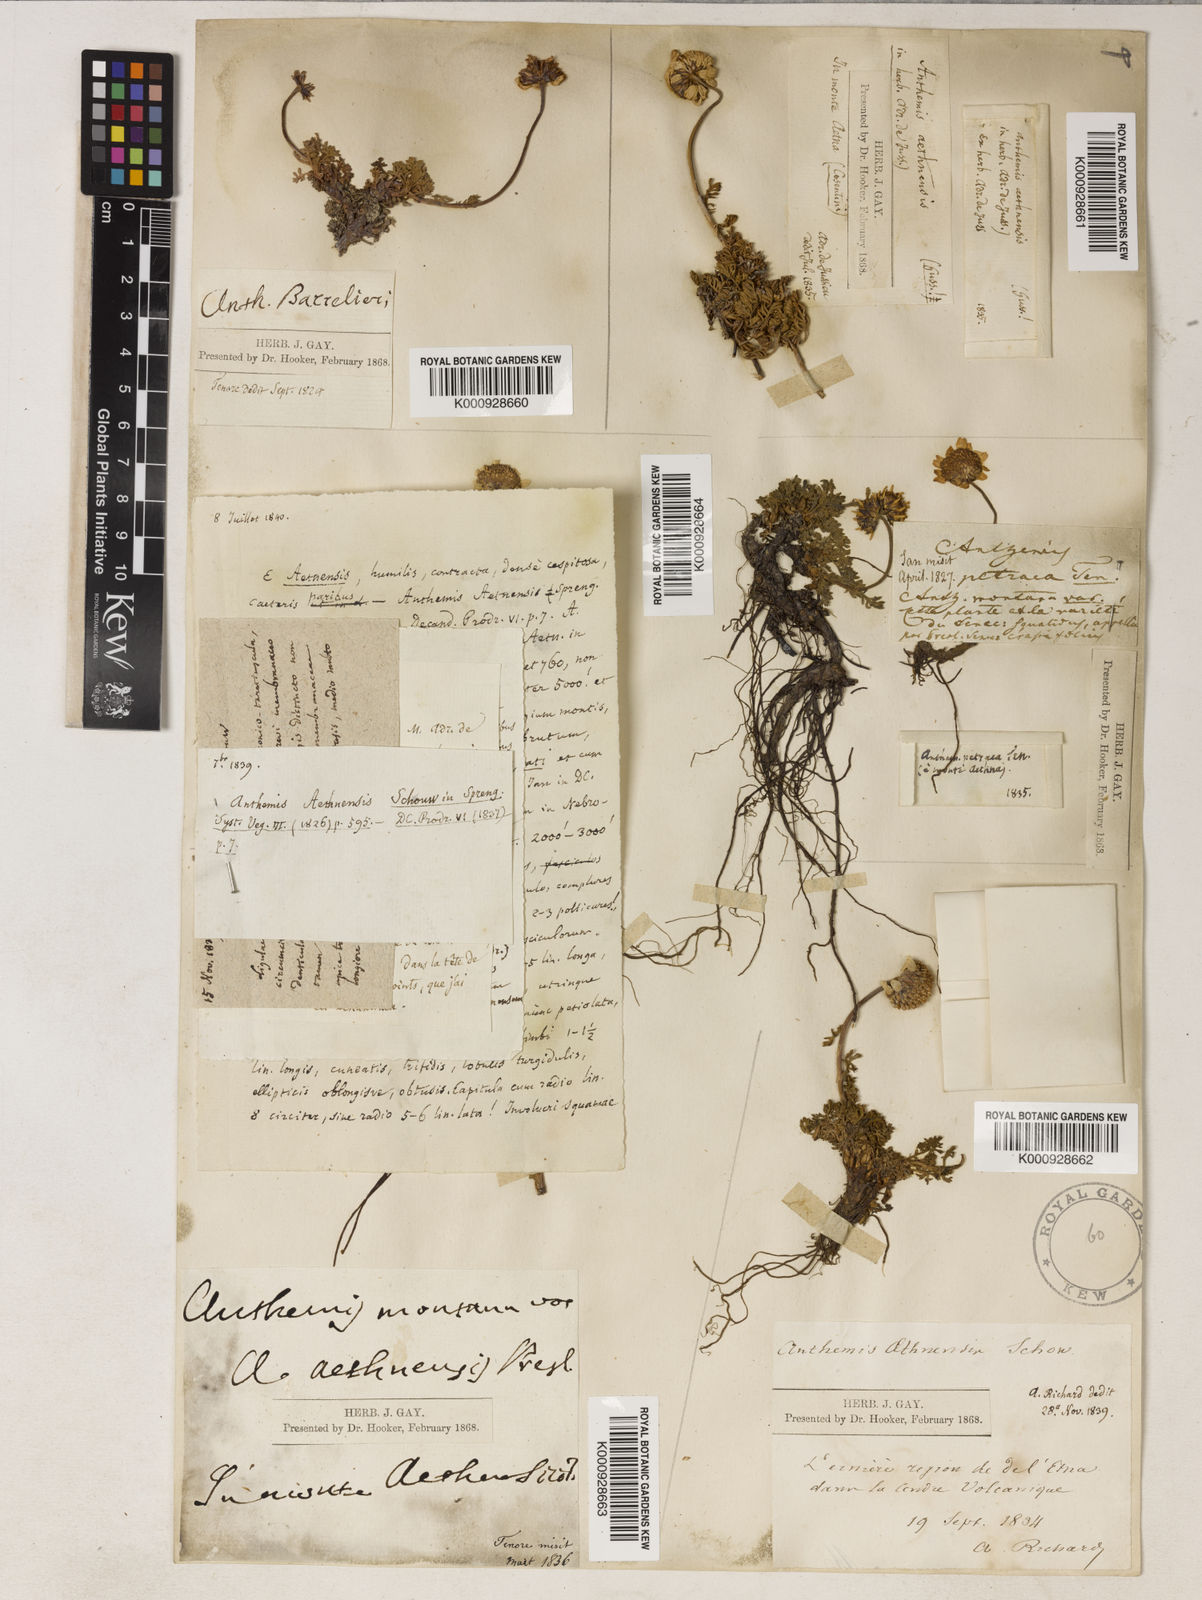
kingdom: Plantae
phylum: Tracheophyta
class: Magnoliopsida
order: Asterales
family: Asteraceae
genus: Anthemis
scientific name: Anthemis aetnensis
